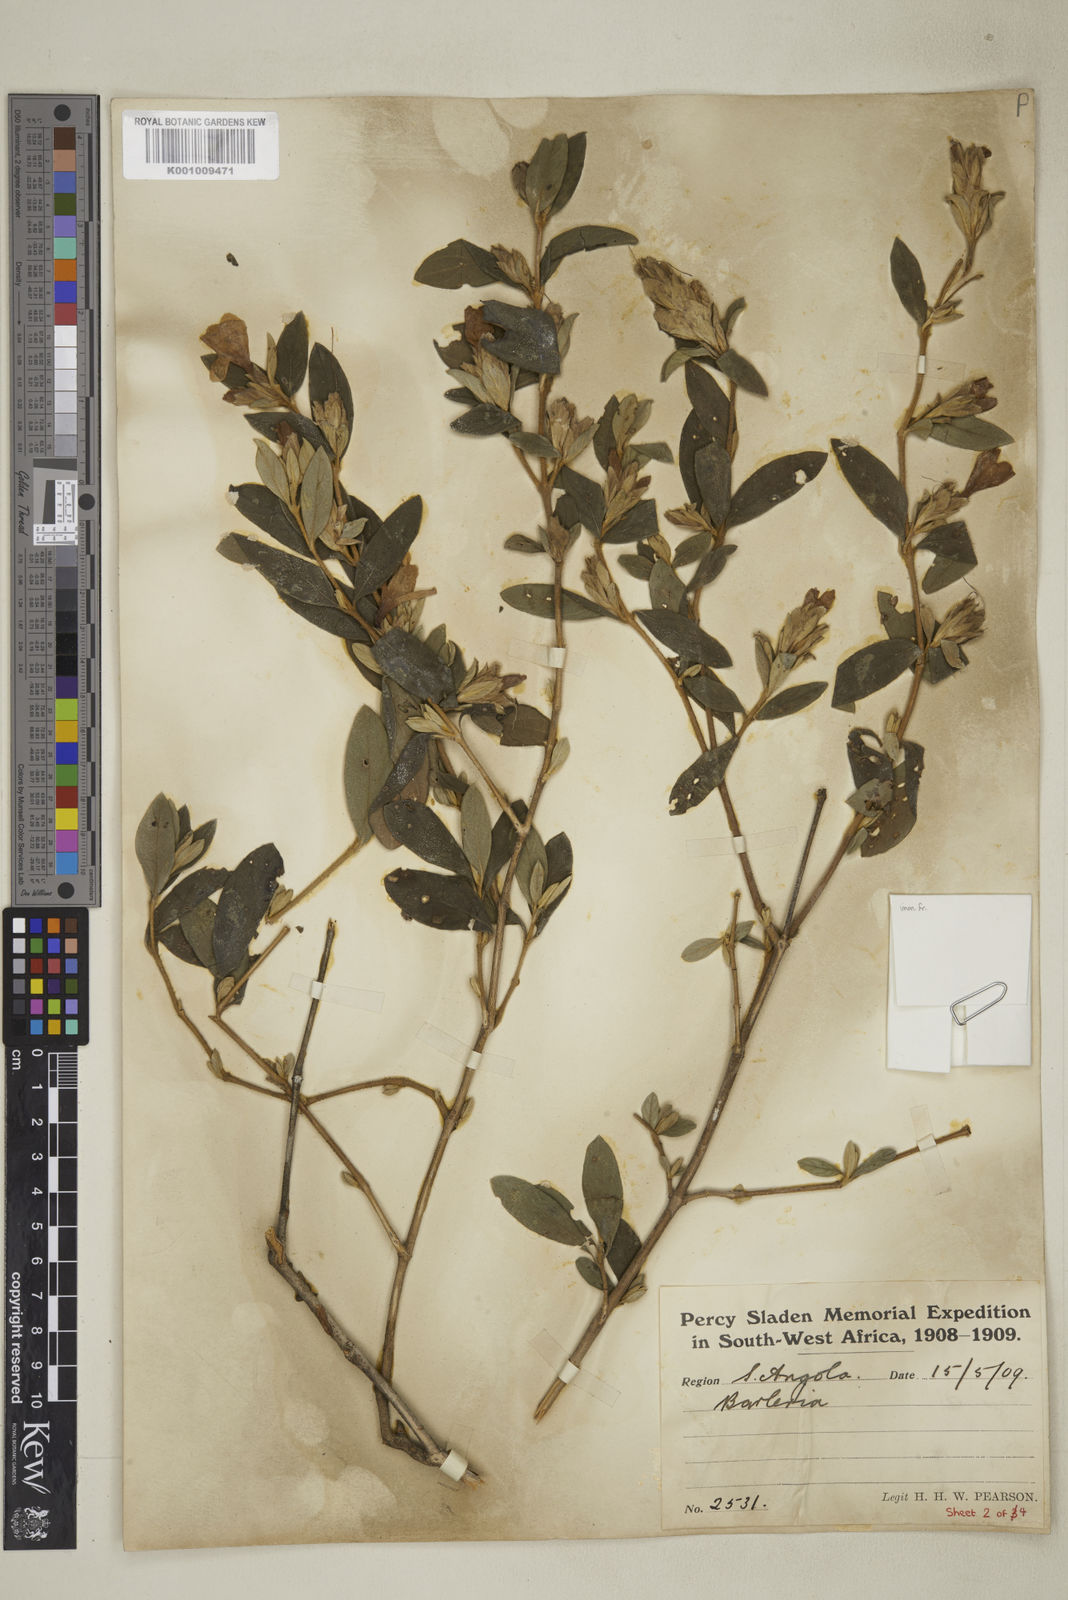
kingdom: Plantae
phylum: Tracheophyta
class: Magnoliopsida
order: Lamiales
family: Acanthaceae
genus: Barleria
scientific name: Barleria taitensis
